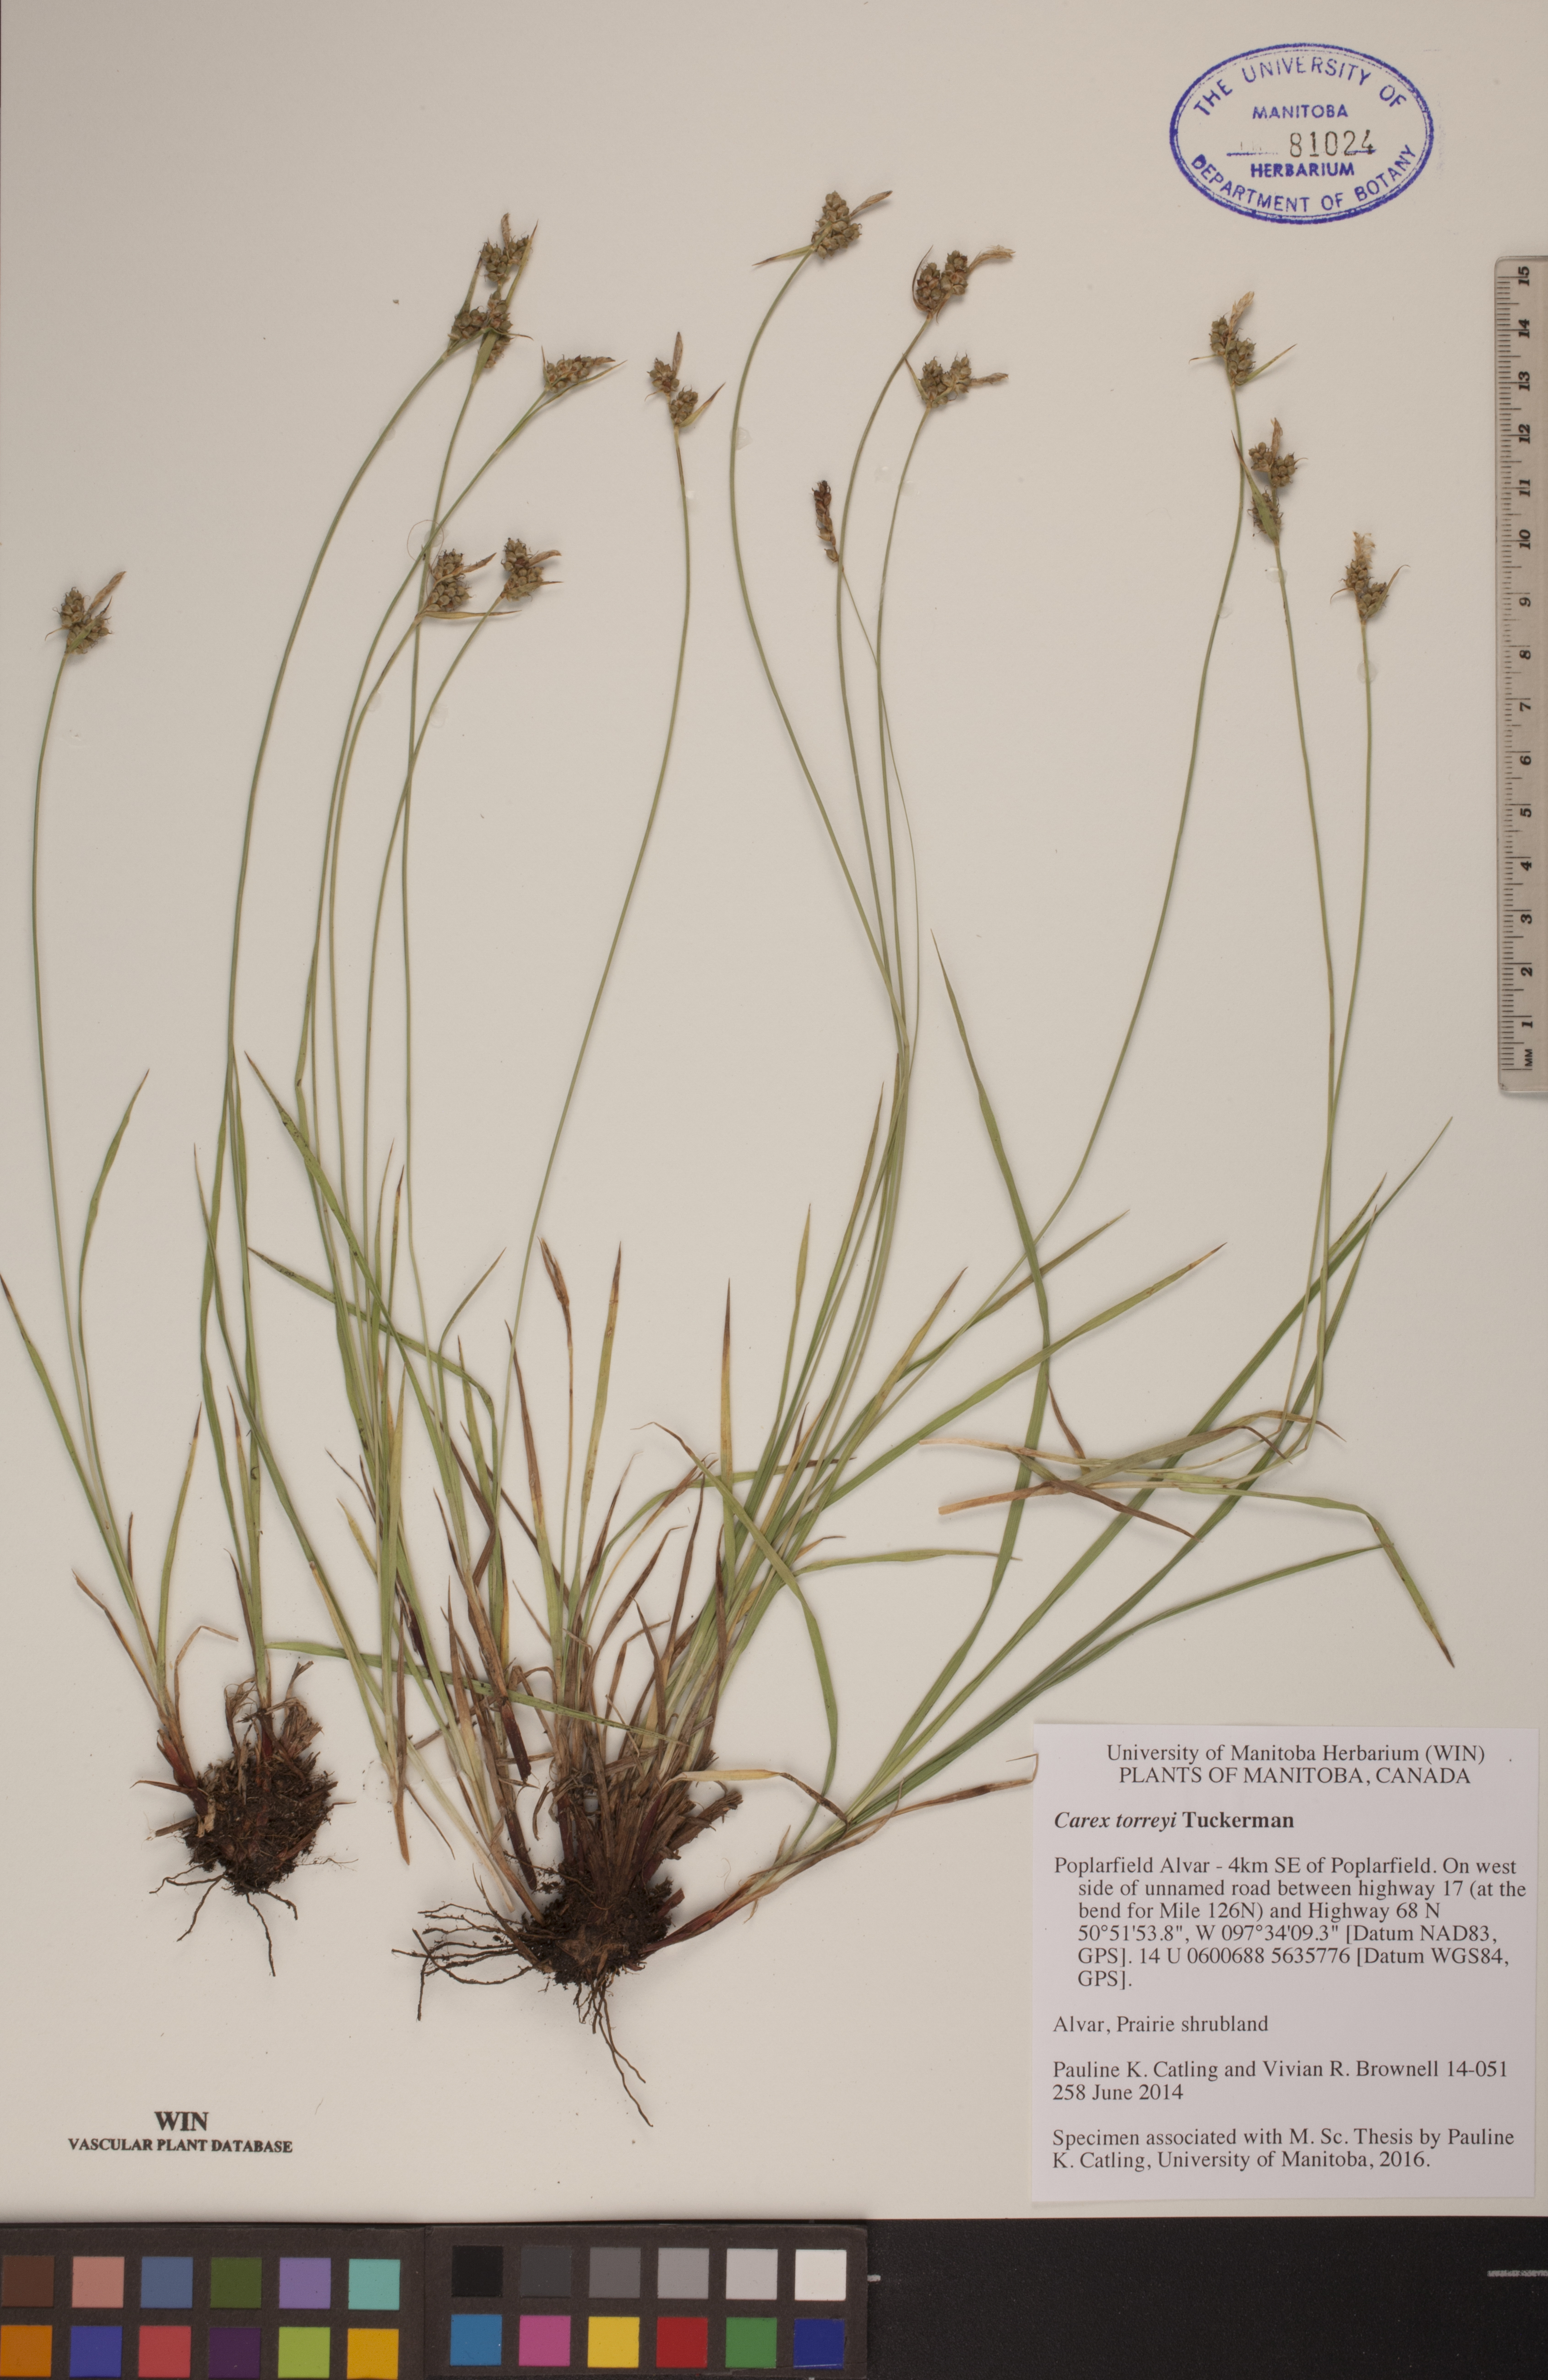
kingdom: Plantae
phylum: Tracheophyta
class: Liliopsida
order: Poales
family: Cyperaceae
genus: Carex
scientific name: Carex torreyi
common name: Torrey's sedge
